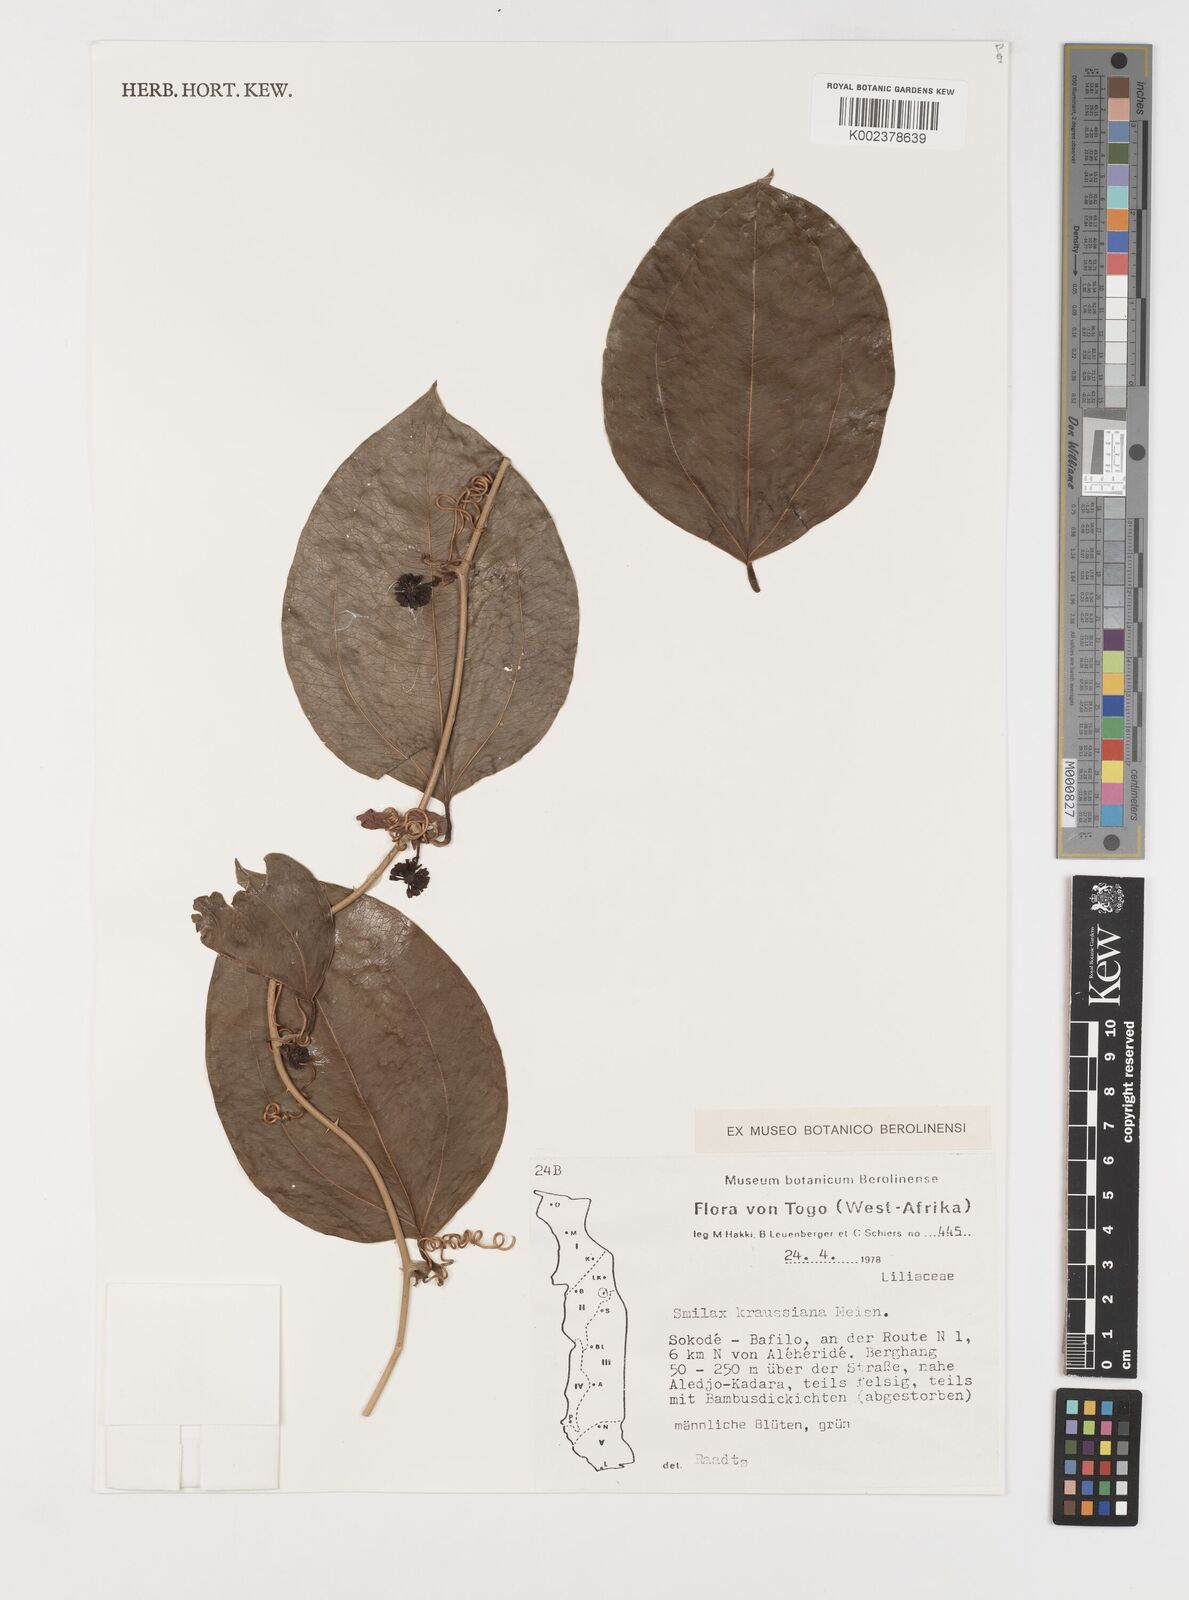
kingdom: Plantae
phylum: Tracheophyta
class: Liliopsida
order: Liliales
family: Smilacaceae
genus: Smilax
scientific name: Smilax anceps
